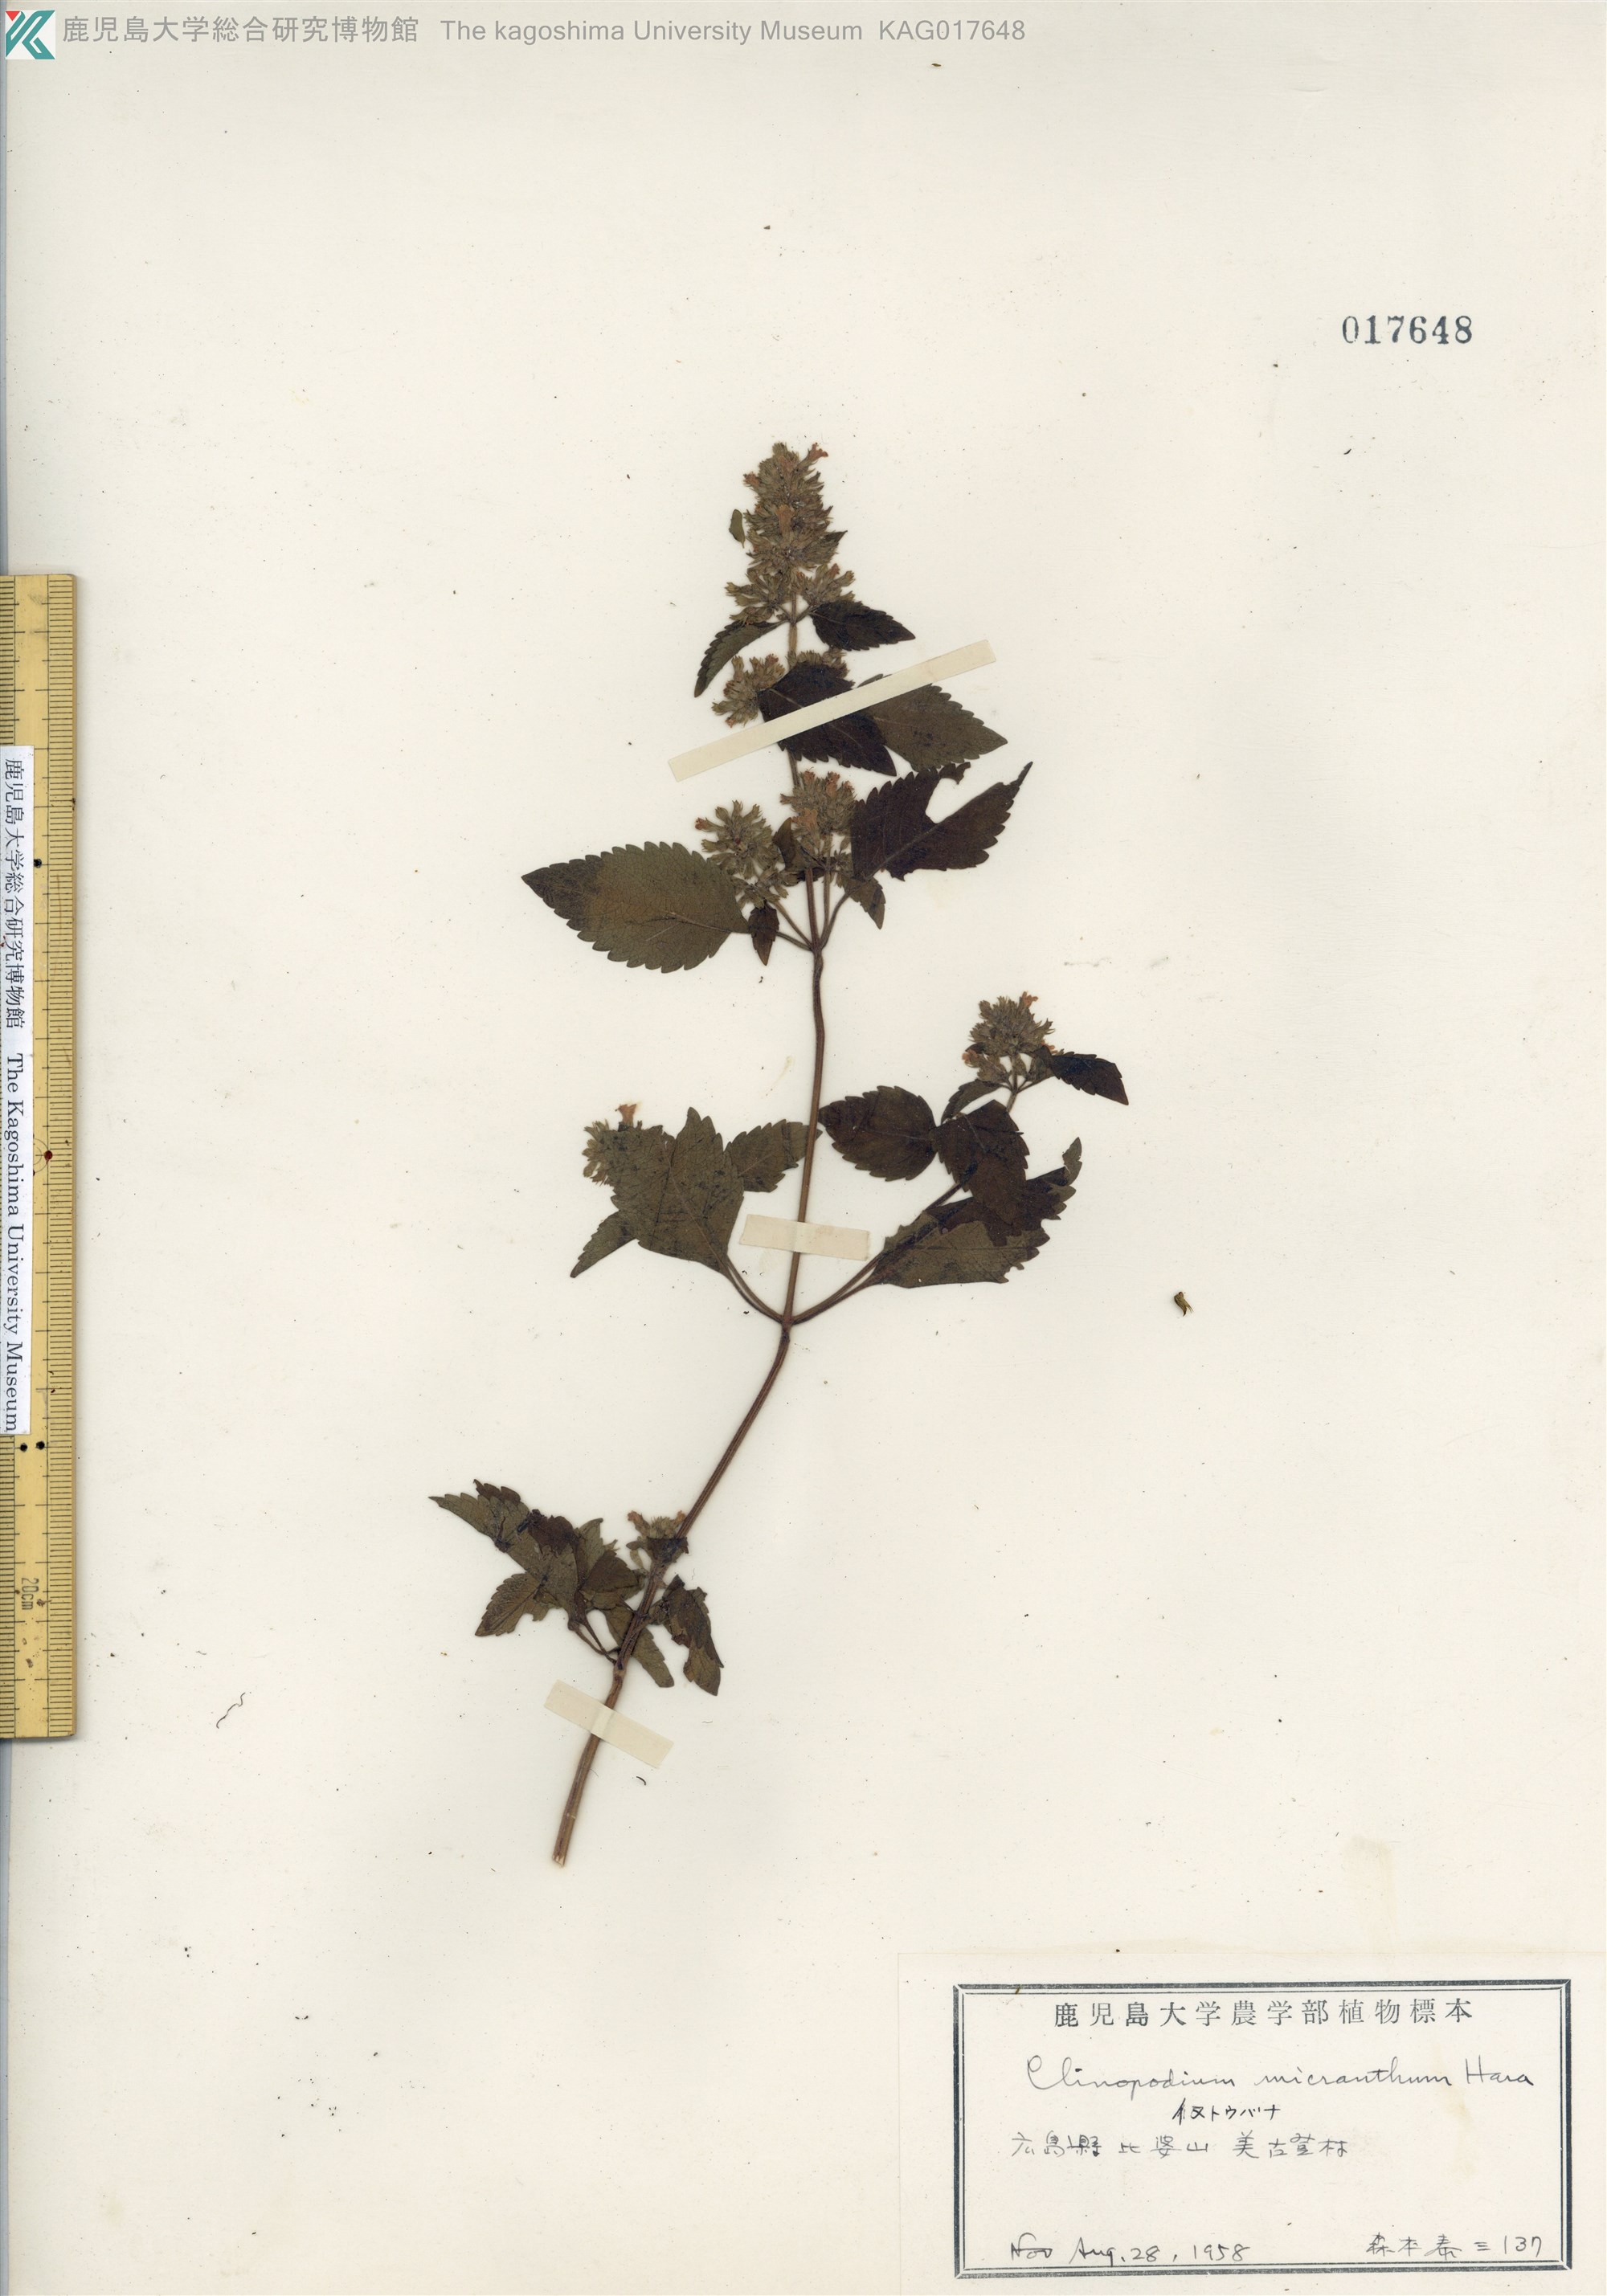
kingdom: Plantae
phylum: Tracheophyta
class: Magnoliopsida
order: Lamiales
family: Lamiaceae
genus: Clinopodium
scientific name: Clinopodium micranthum
